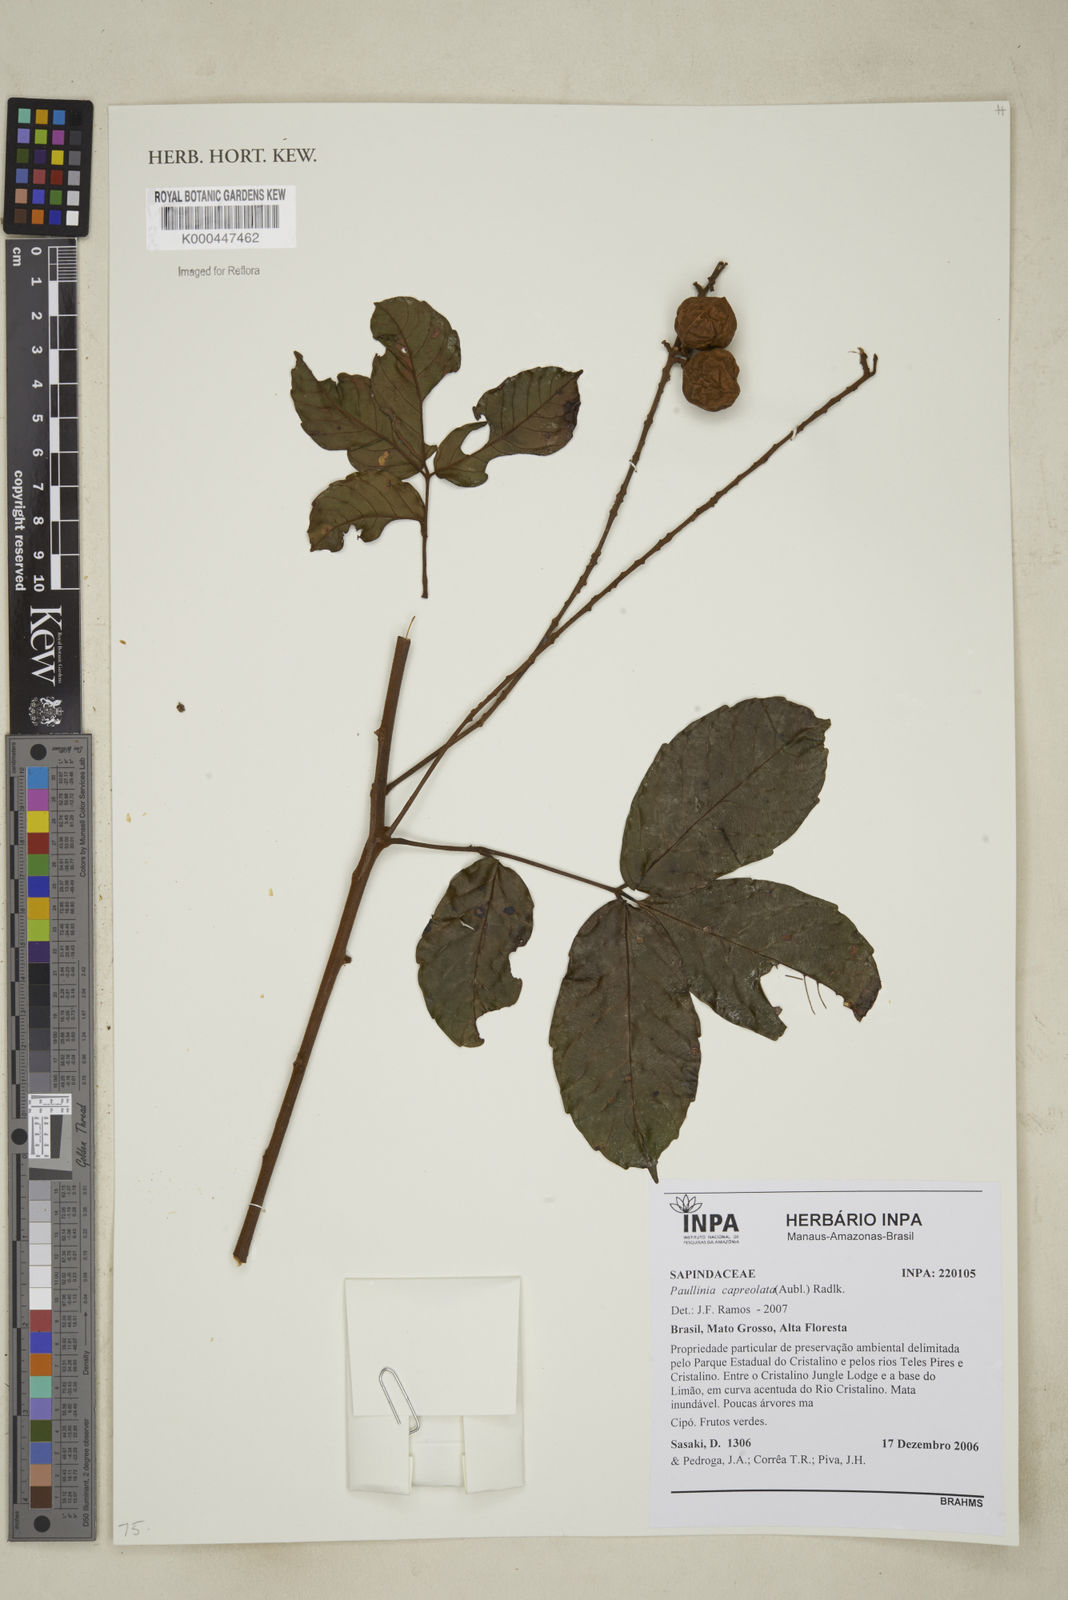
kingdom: Plantae
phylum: Tracheophyta
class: Magnoliopsida
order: Sapindales
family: Sapindaceae
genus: Paullinia
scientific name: Paullinia capreolata
